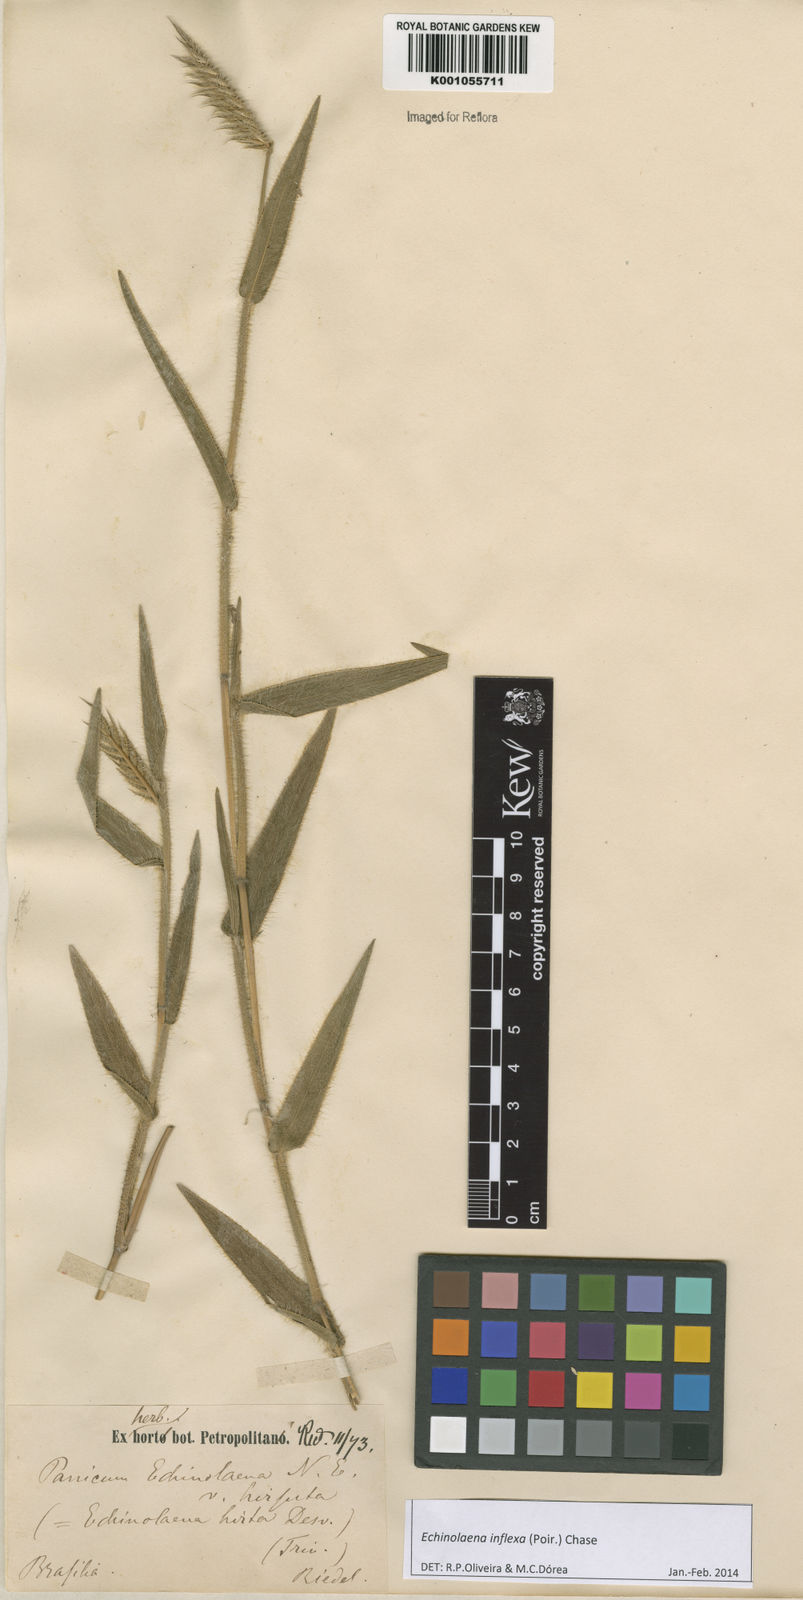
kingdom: Plantae
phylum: Tracheophyta
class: Liliopsida
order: Poales
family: Poaceae
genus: Echinolaena
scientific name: Echinolaena inflexa
